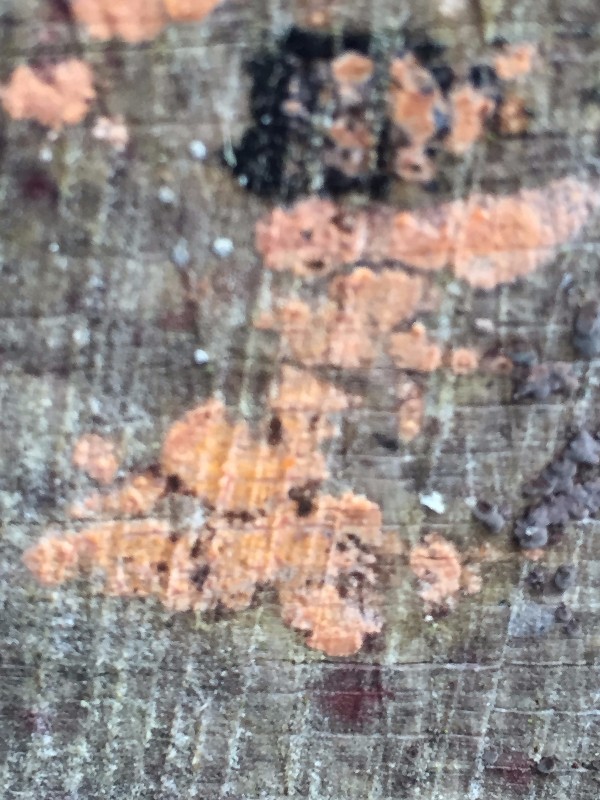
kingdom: Fungi
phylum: Basidiomycota
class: Agaricomycetes
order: Russulales
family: Peniophoraceae
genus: Peniophora
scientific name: Peniophora incarnata
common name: laksefarvet voksskind
